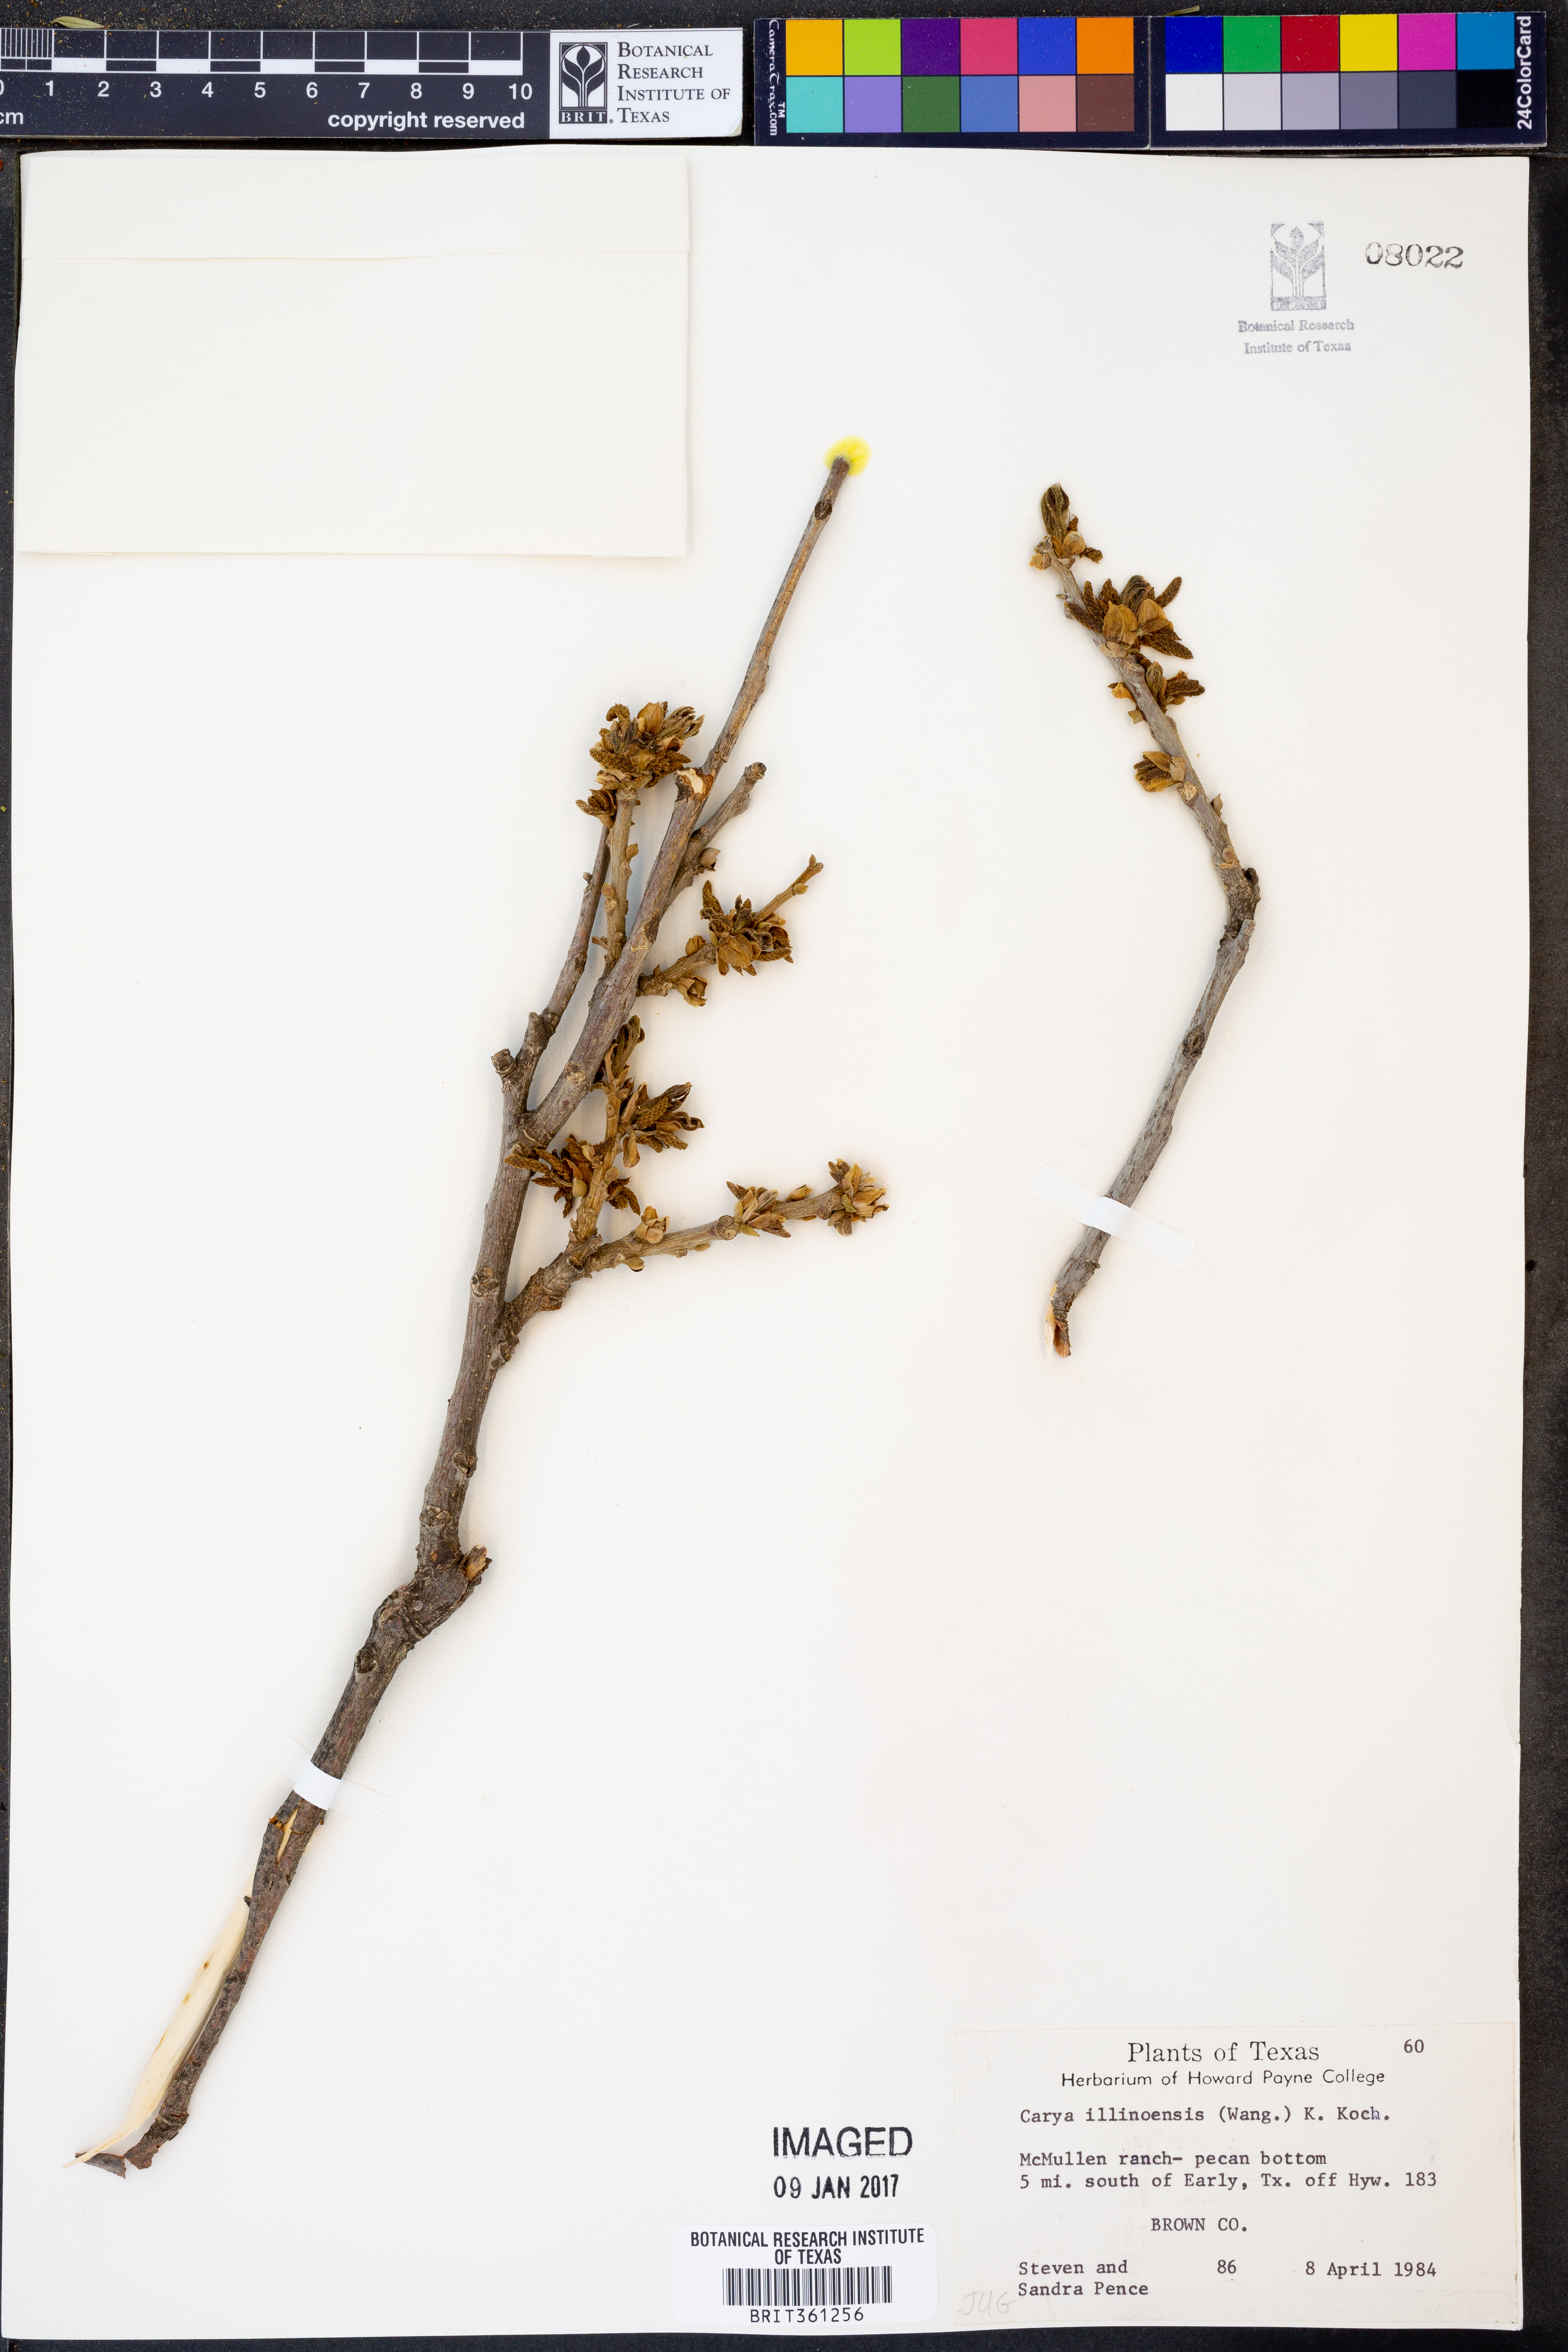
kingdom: Plantae
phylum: Tracheophyta
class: Magnoliopsida
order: Fagales
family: Juglandaceae
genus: Carya
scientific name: Carya illinoinensis
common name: Pecan
